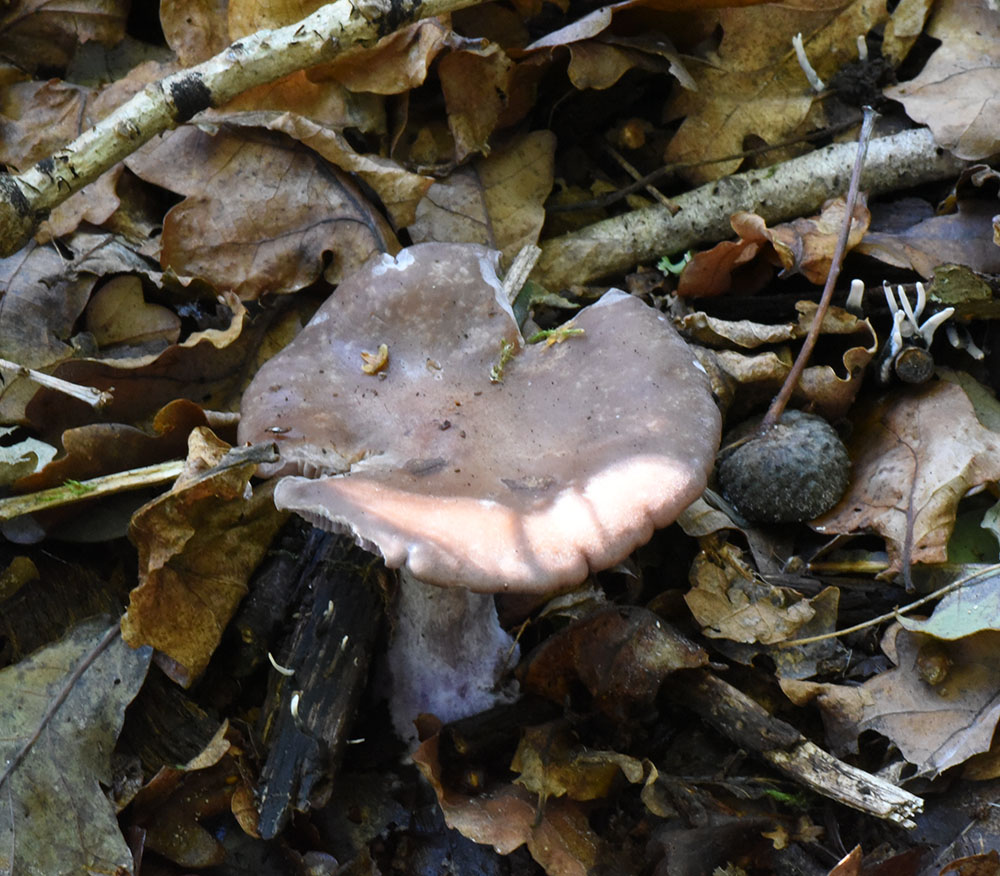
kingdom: Fungi
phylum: Basidiomycota
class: Agaricomycetes
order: Agaricales
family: Tricholomataceae
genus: Clitocybe
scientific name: Clitocybe nebularis
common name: Clouded agaric
